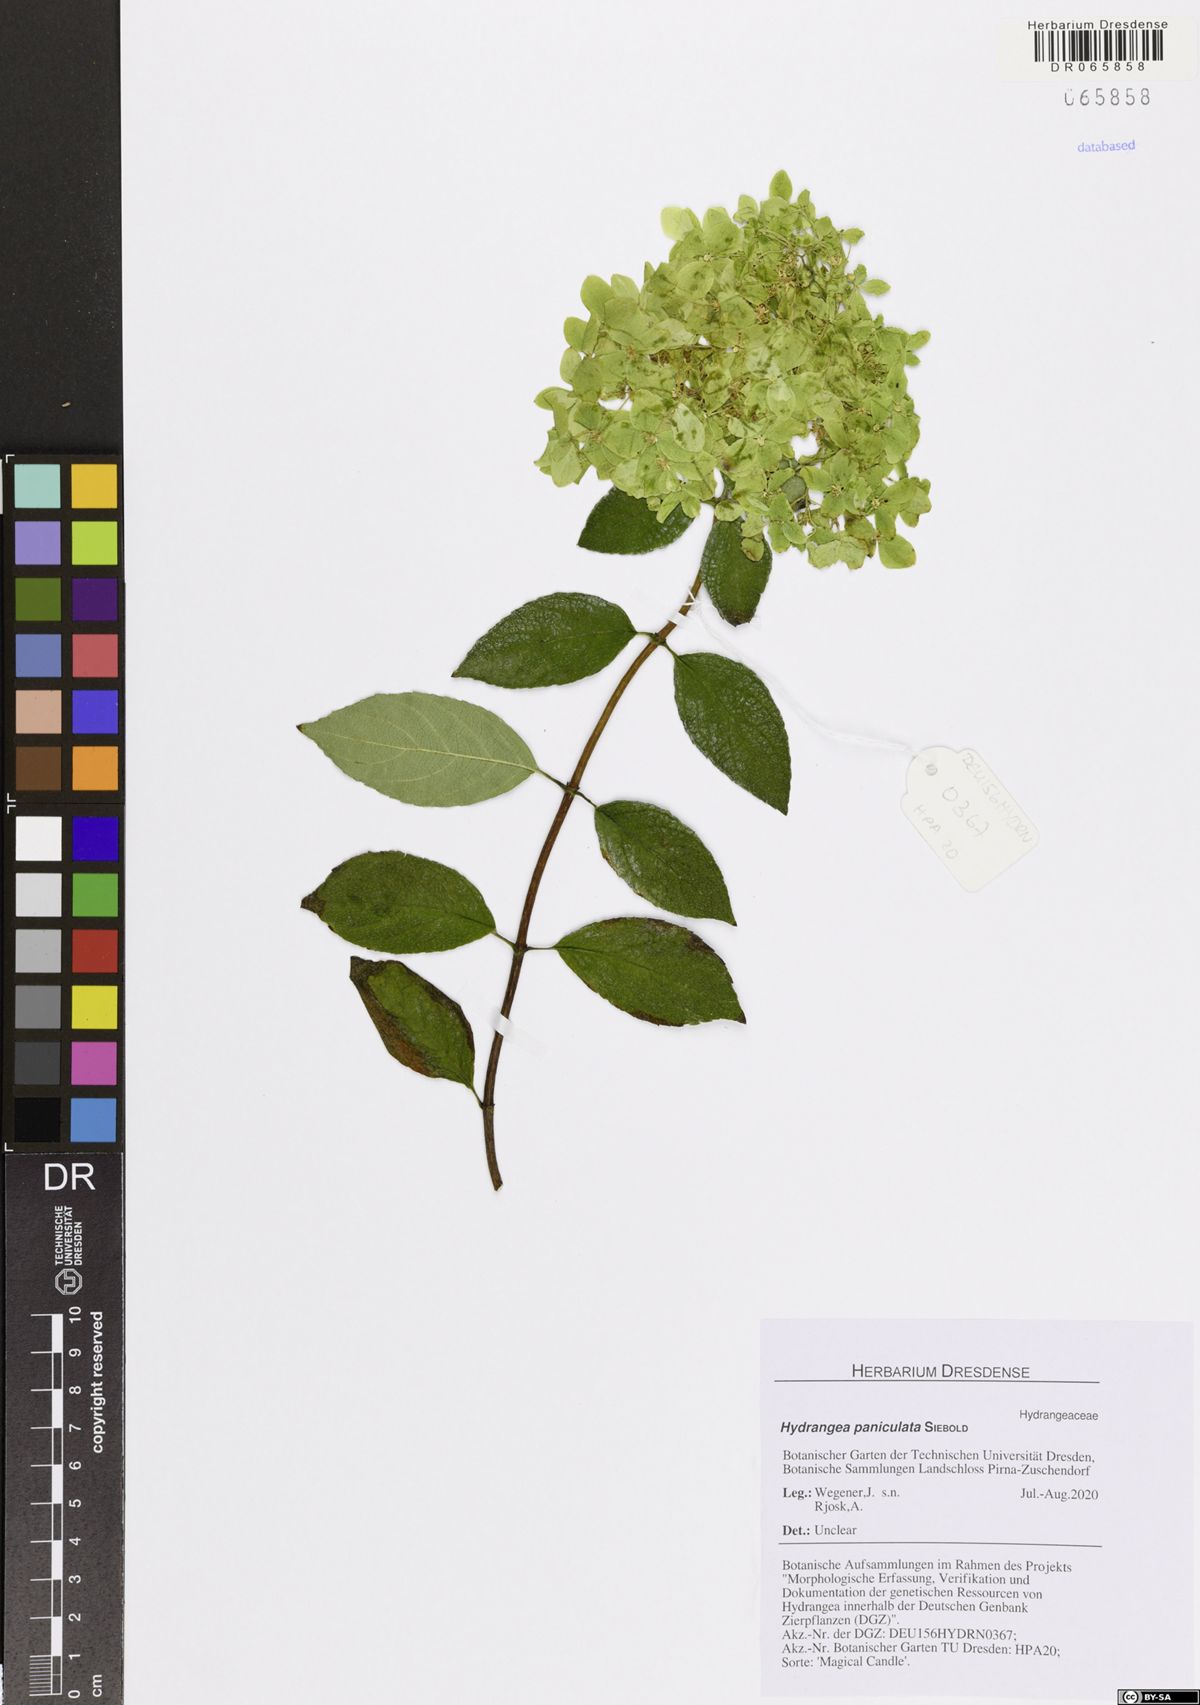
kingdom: Plantae
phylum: Tracheophyta
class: Magnoliopsida
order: Cornales
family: Hydrangeaceae
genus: Hydrangea
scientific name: Hydrangea paniculata
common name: Panicled hydrangea
